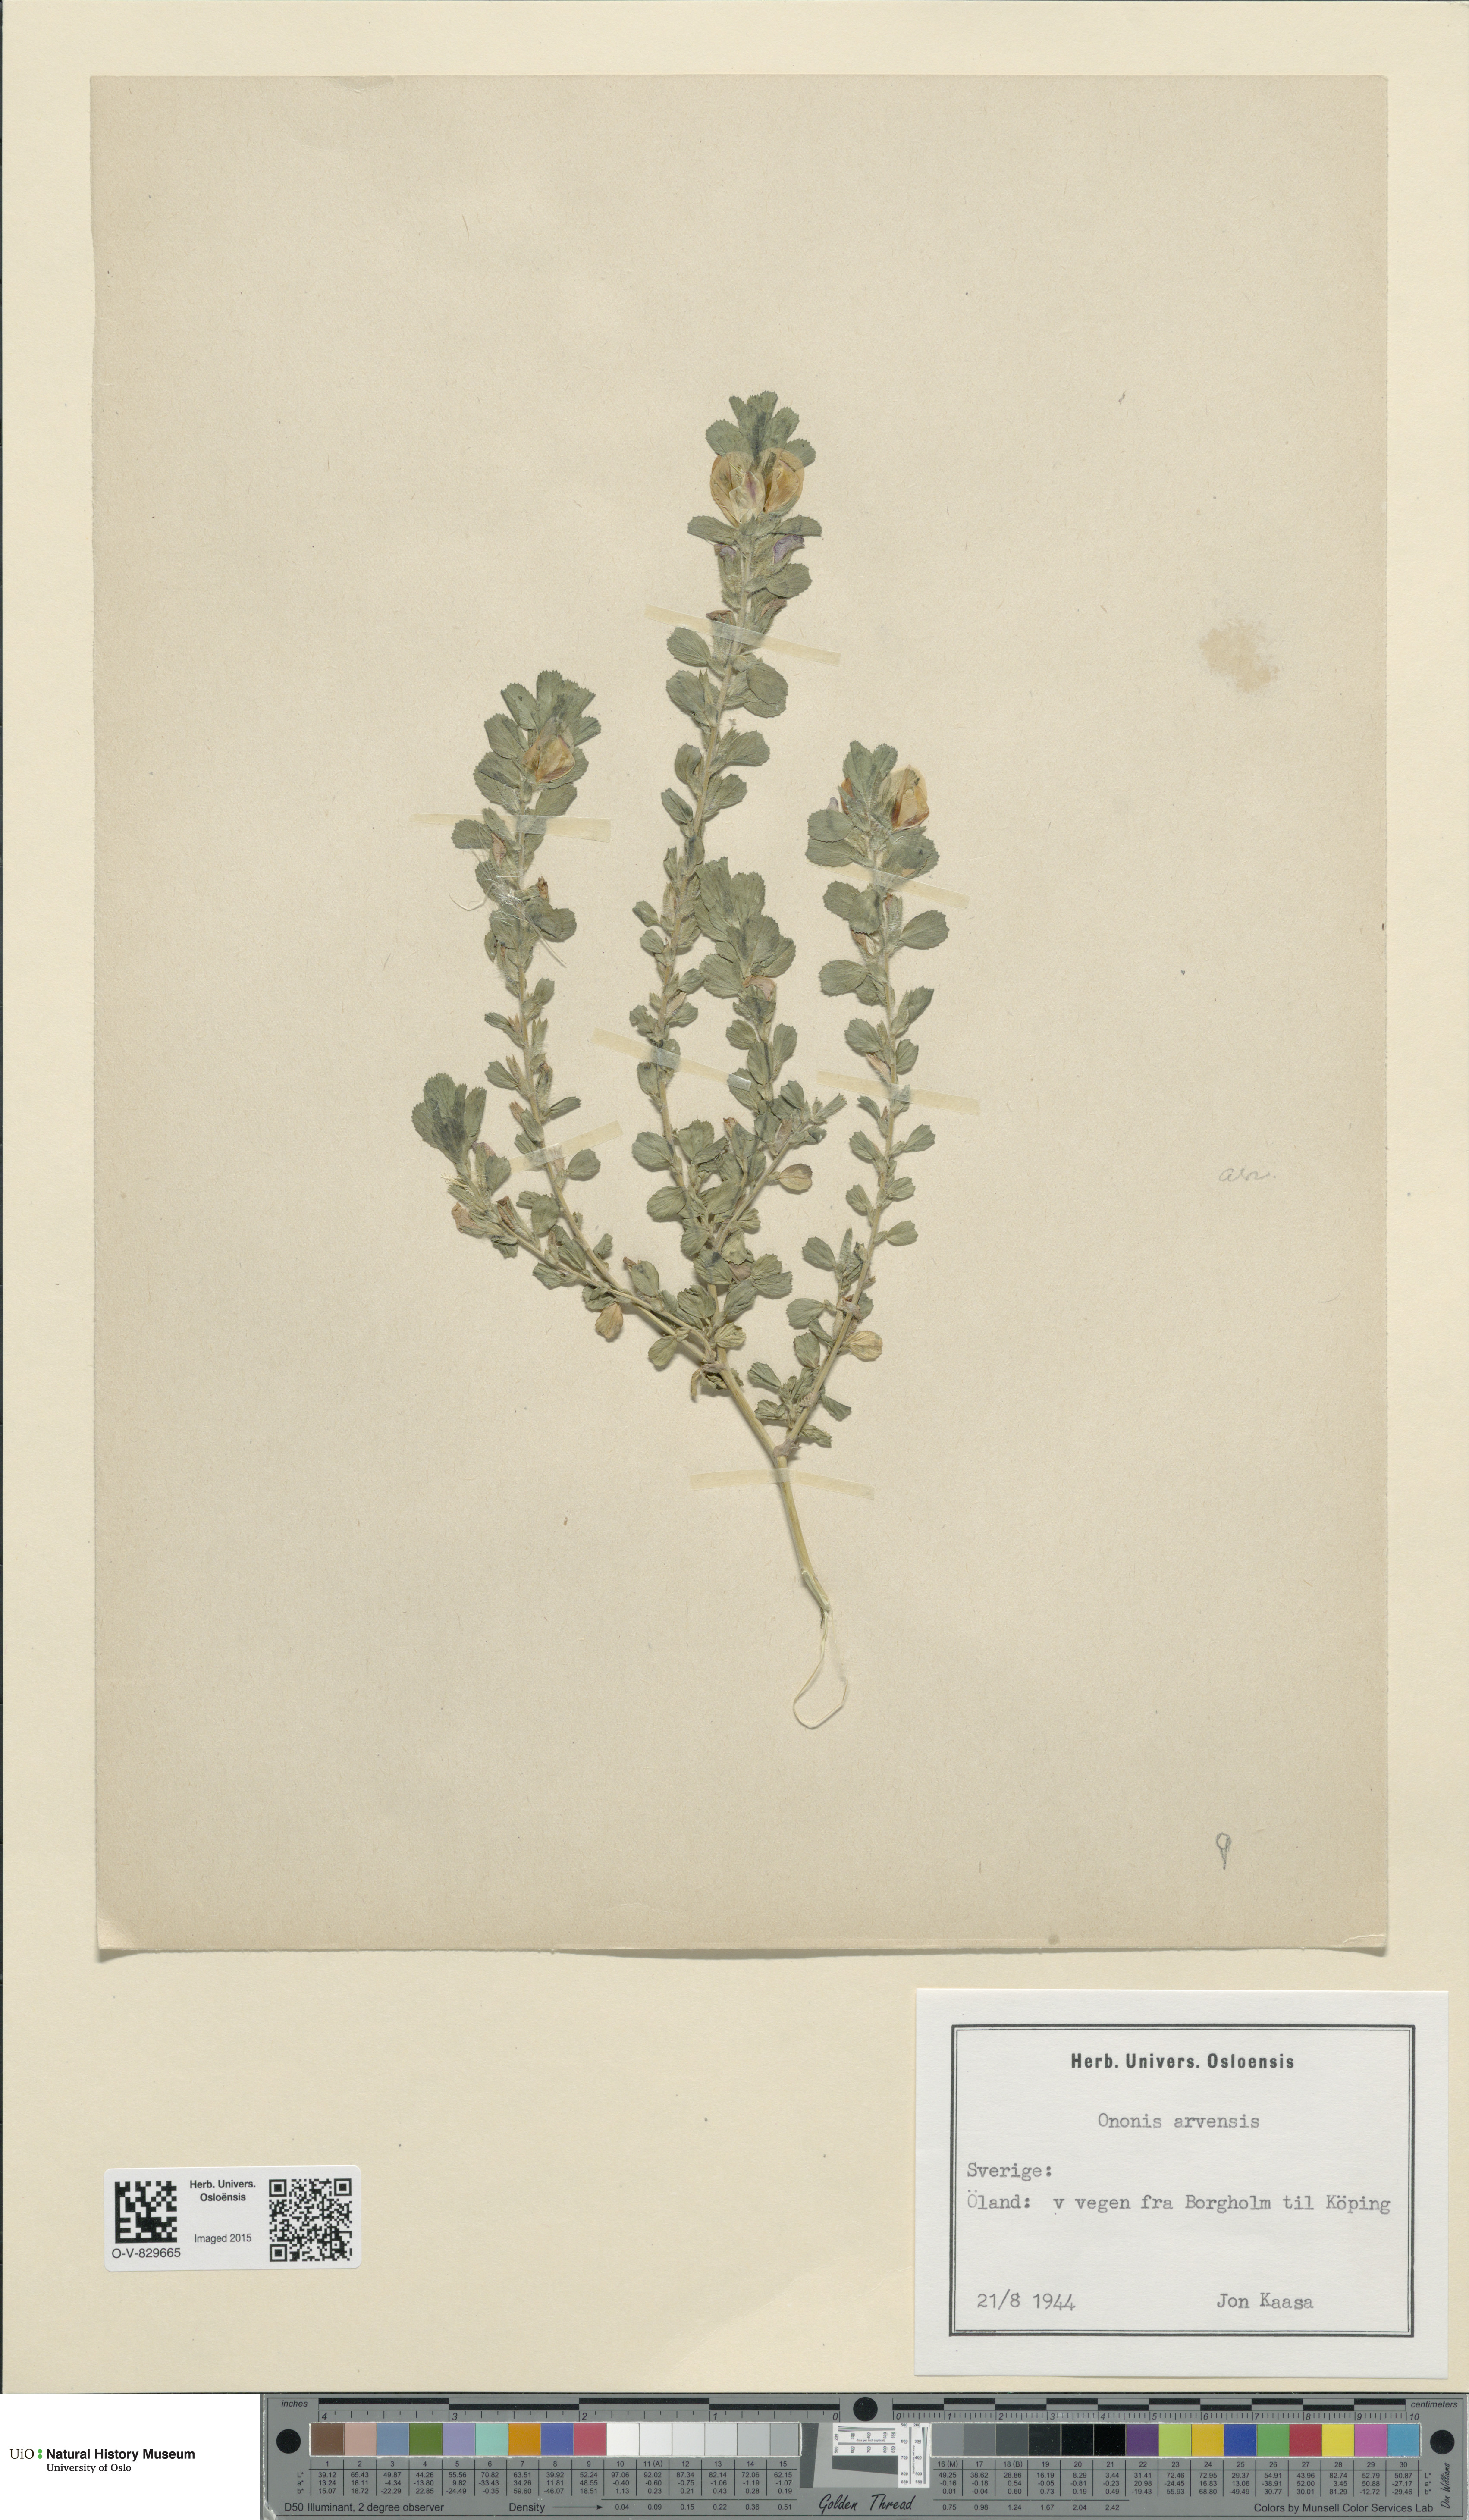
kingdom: Plantae
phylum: Tracheophyta
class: Magnoliopsida
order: Fabales
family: Fabaceae
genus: Ononis
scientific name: Ononis arvensis
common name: Field restharrow
